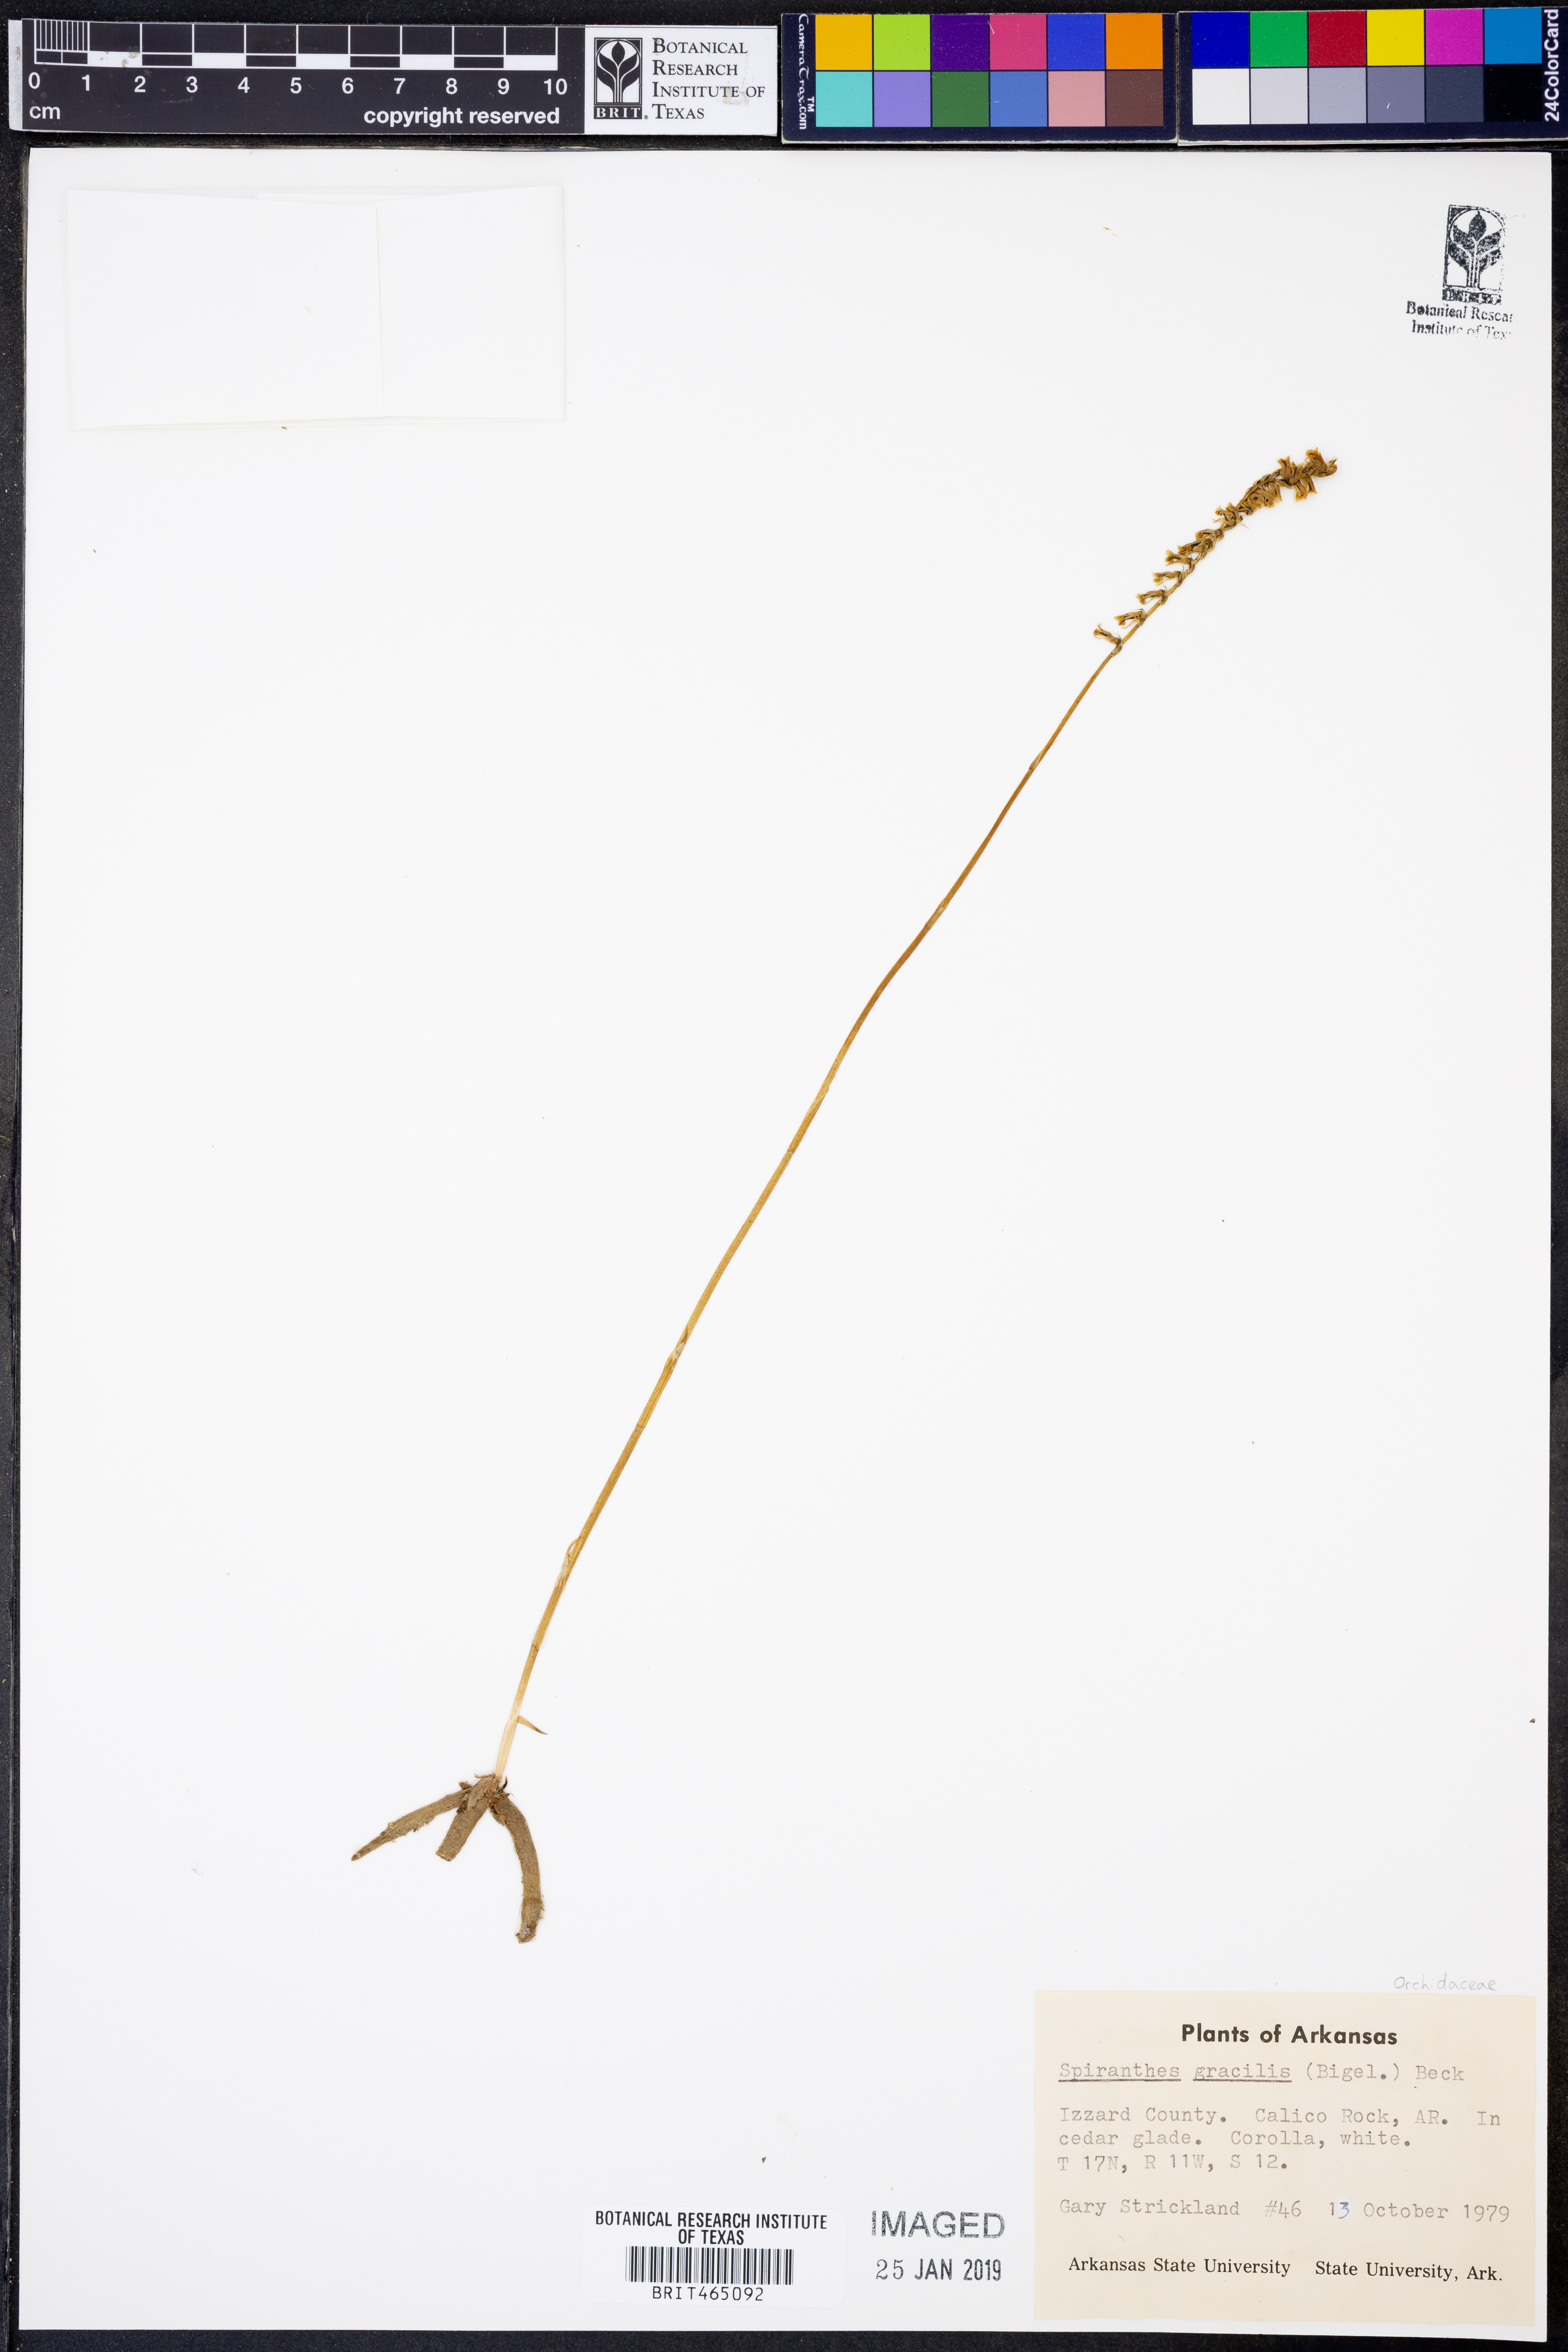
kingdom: Plantae
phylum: Tracheophyta
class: Liliopsida
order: Asparagales
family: Orchidaceae
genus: Spiranthes
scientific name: Spiranthes lacera
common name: Northern slender ladies'-tresses
